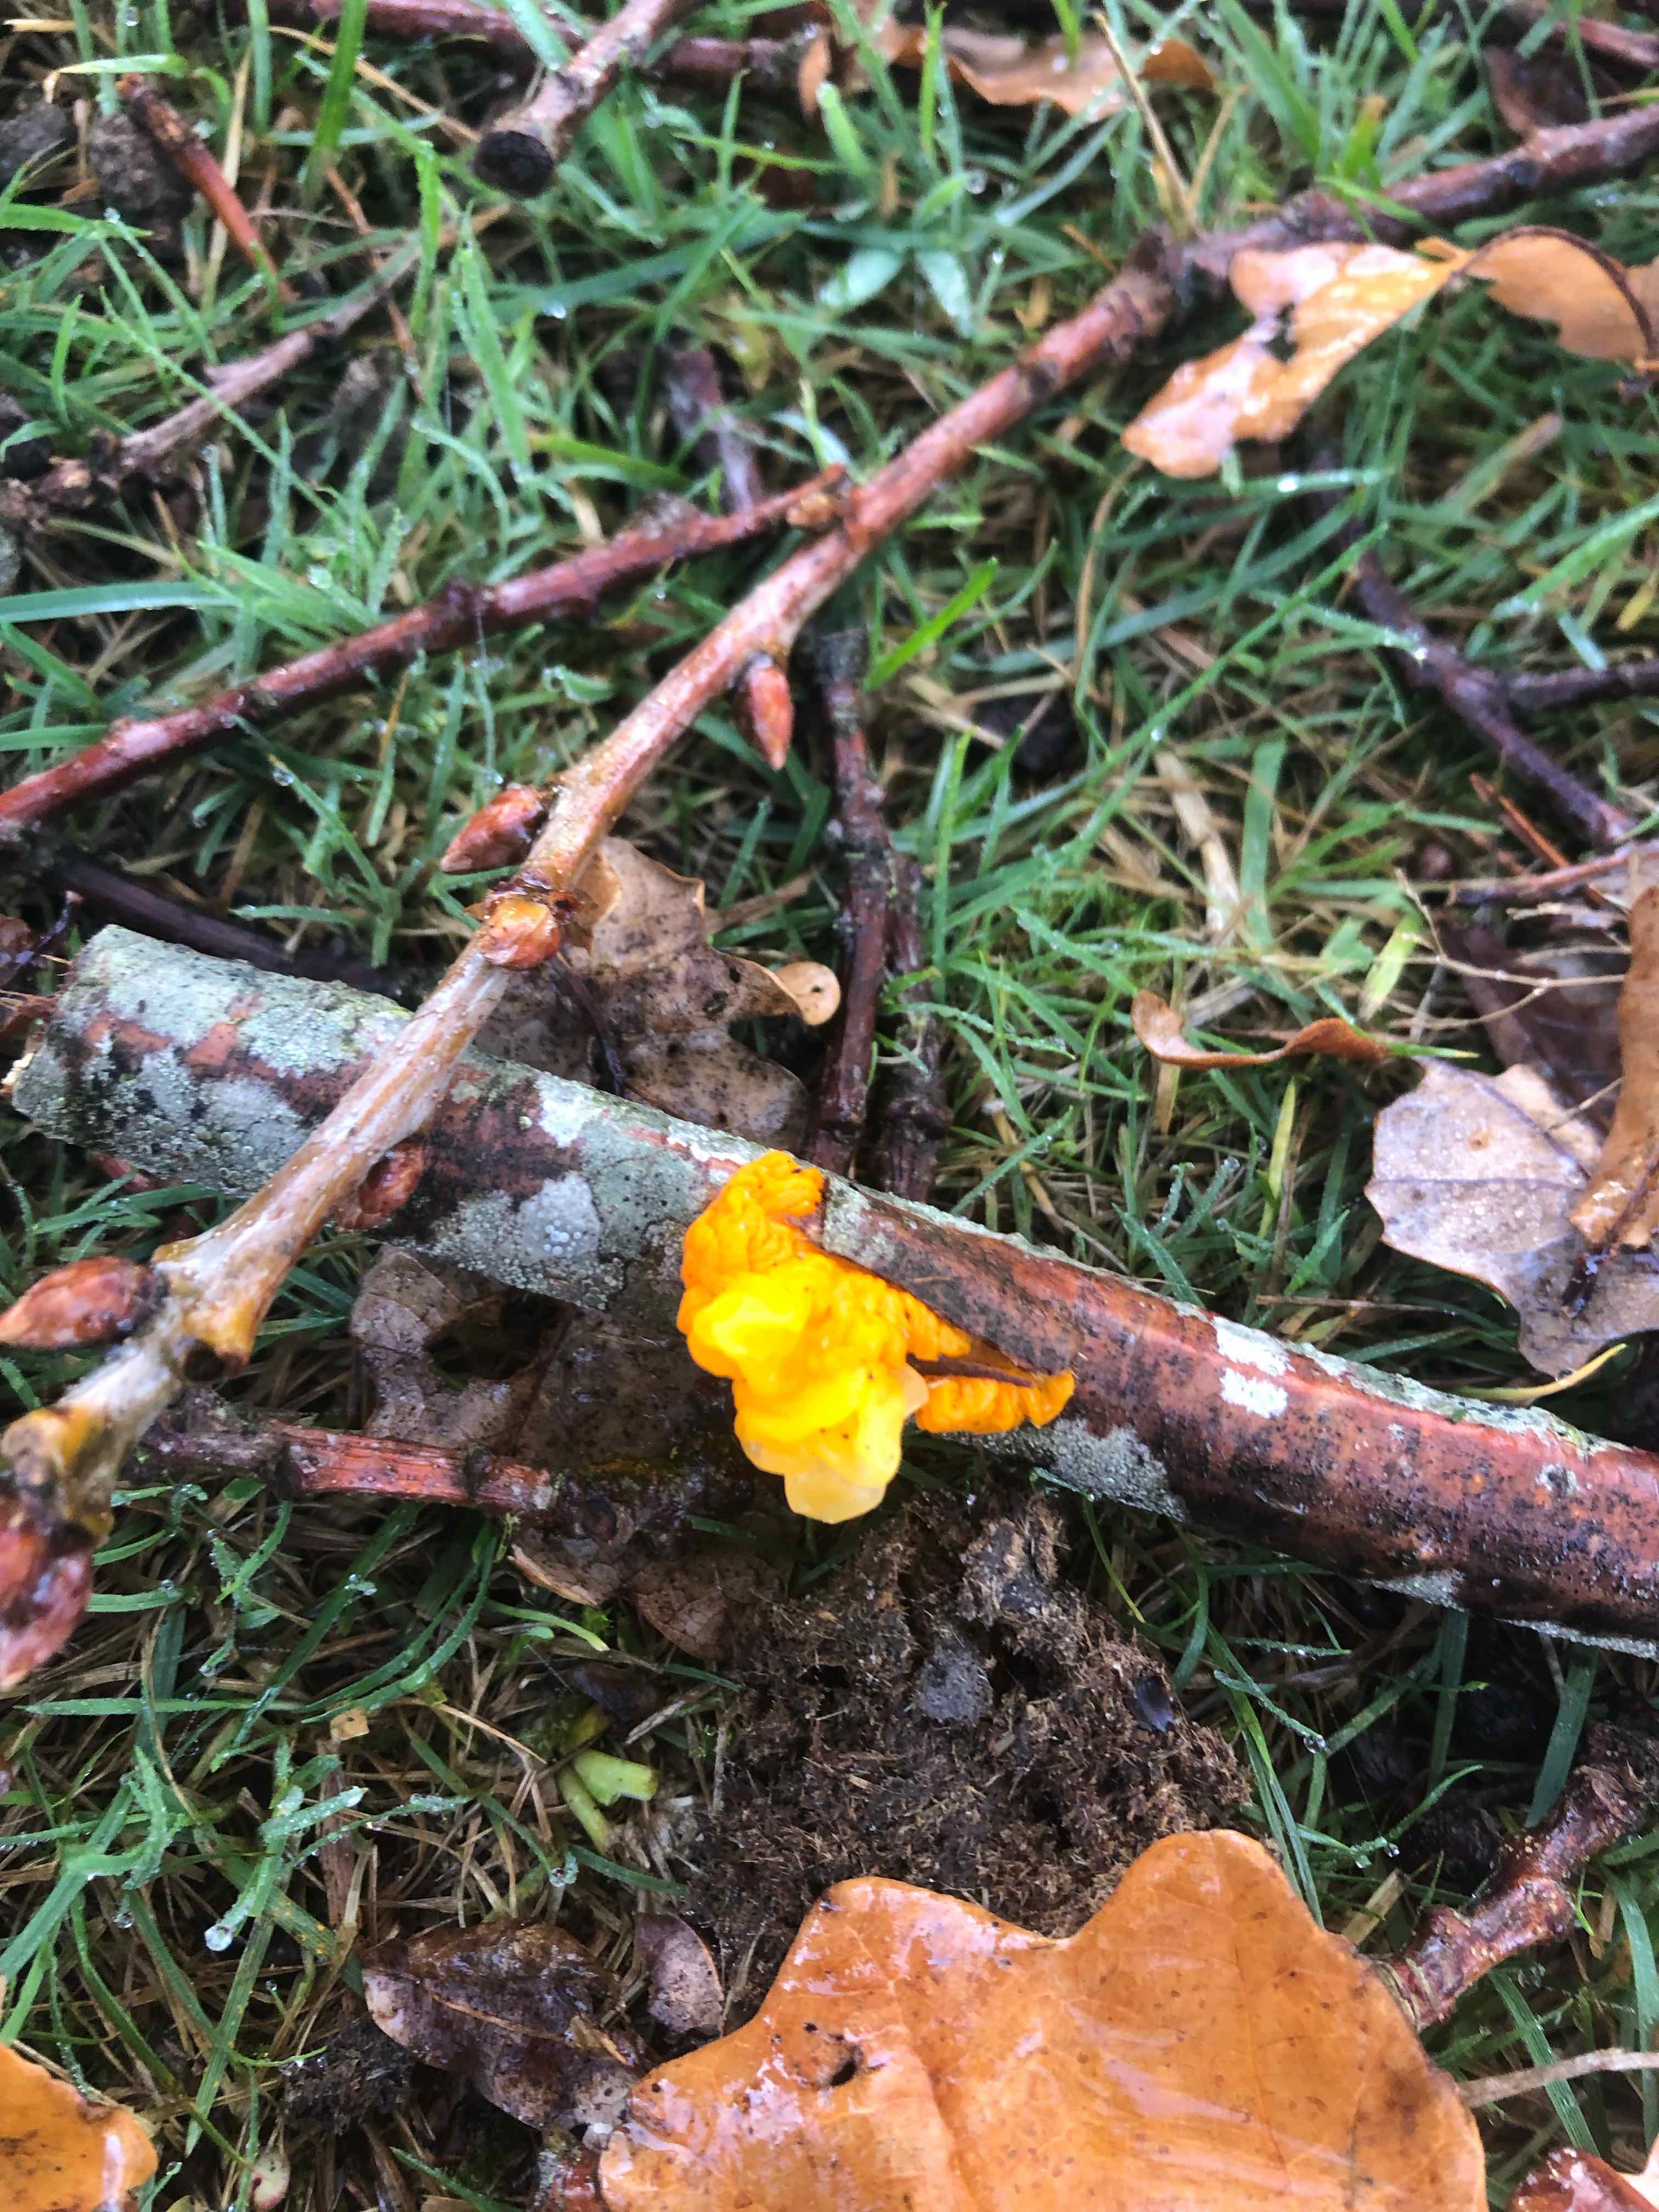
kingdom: Fungi
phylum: Basidiomycota
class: Tremellomycetes
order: Tremellales
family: Tremellaceae
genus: Tremella
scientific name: Tremella mesenterica
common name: gul bævresvamp
